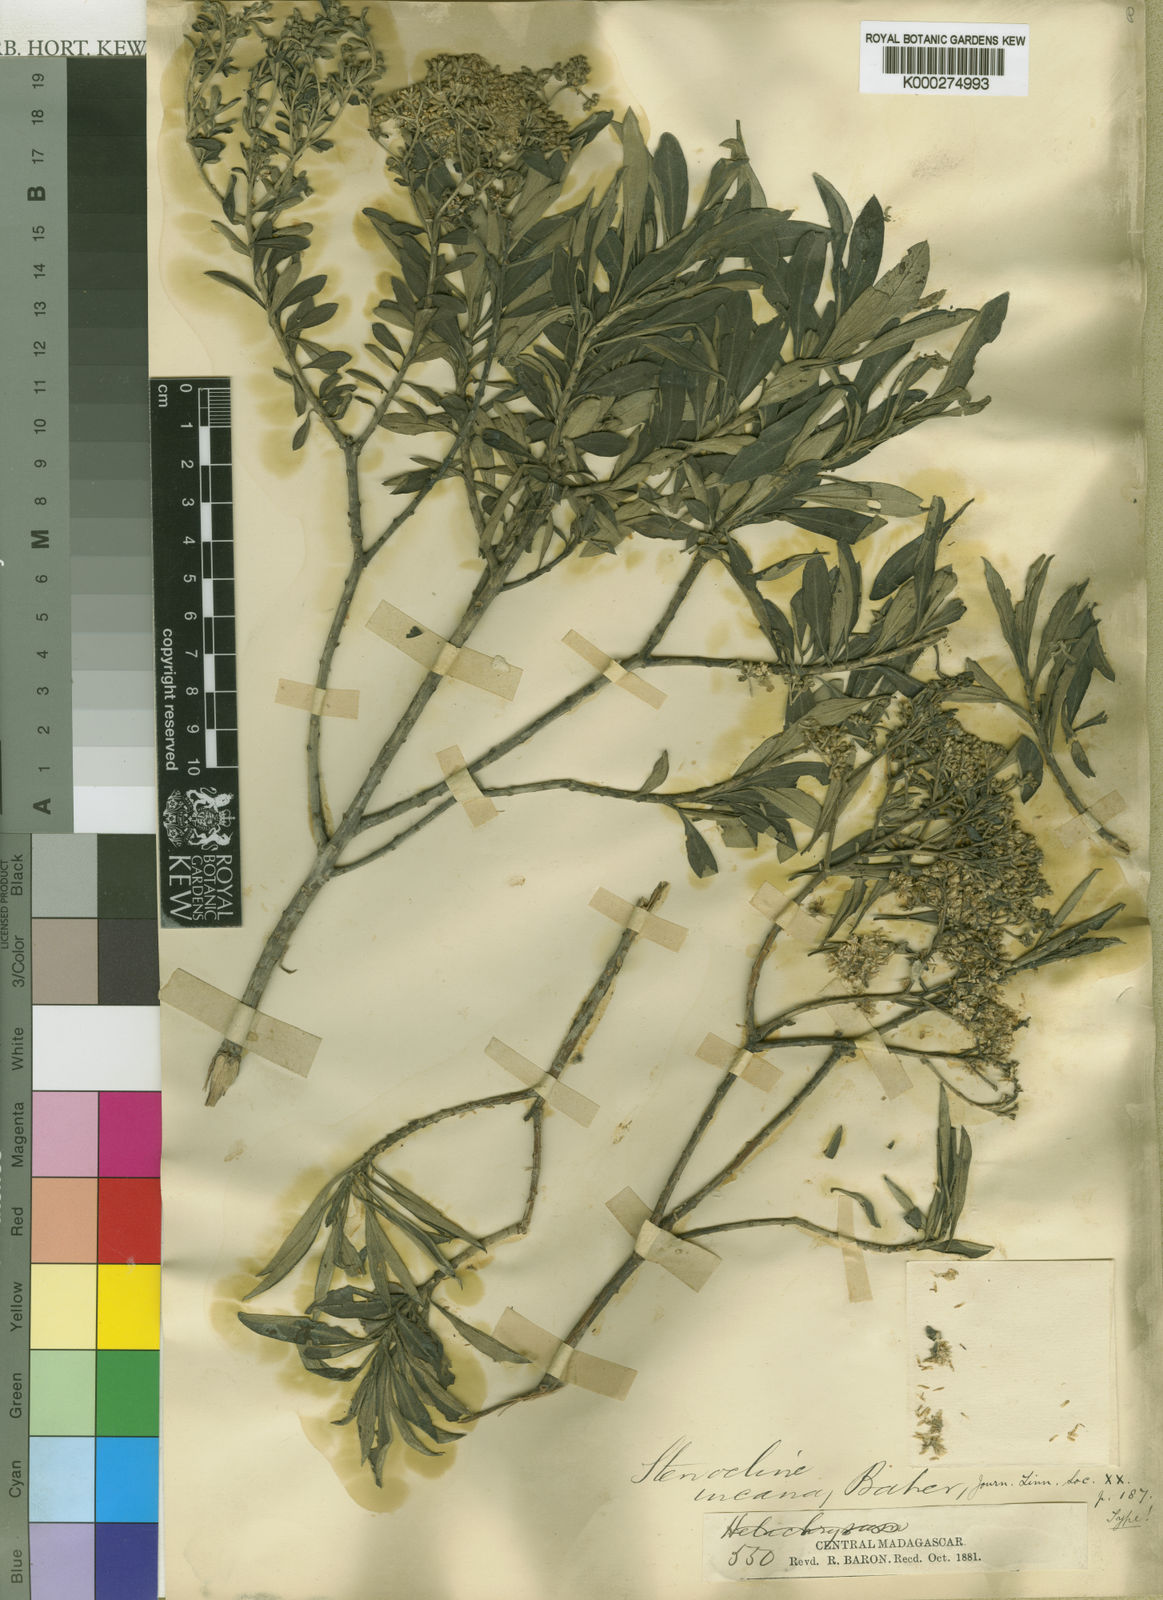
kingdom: Plantae
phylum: Tracheophyta
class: Magnoliopsida
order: Asterales
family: Asteraceae
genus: Helichrysum
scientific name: Helichrysum gymnocephalum
